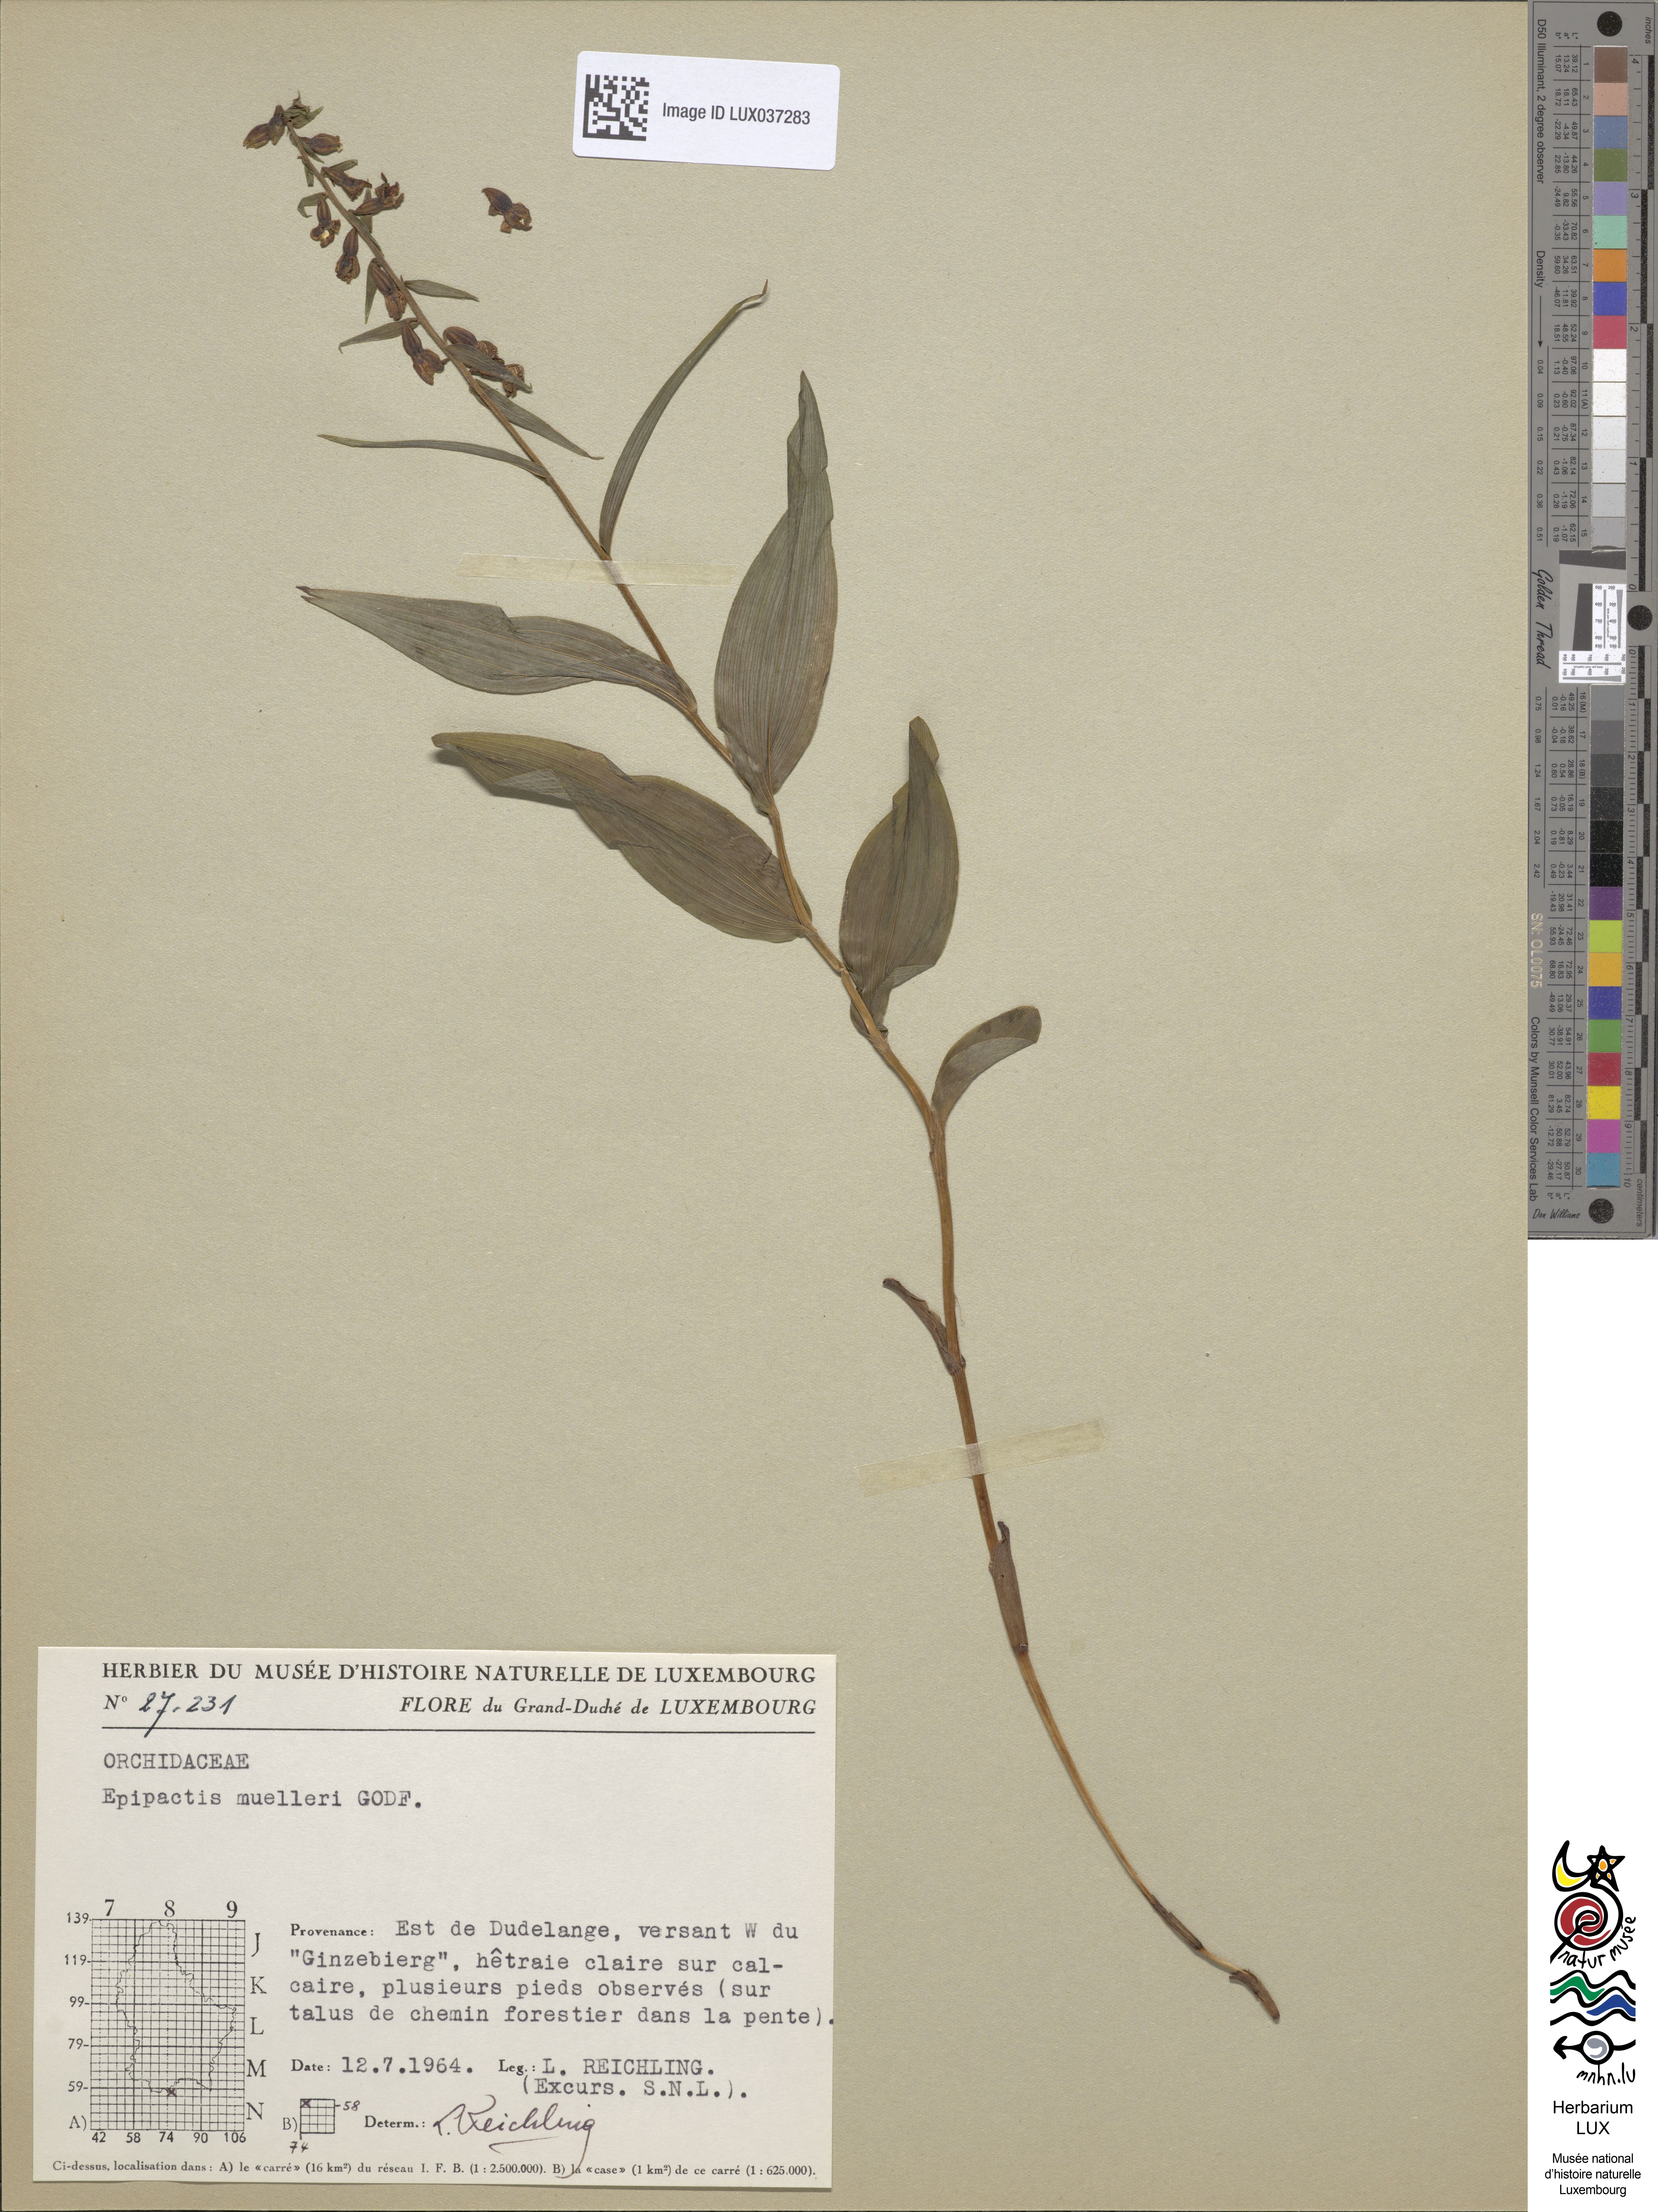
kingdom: Plantae
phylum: Tracheophyta
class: Liliopsida
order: Asparagales
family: Orchidaceae
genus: Epipactis
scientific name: Epipactis muelleri
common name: Mueller's epipactis
